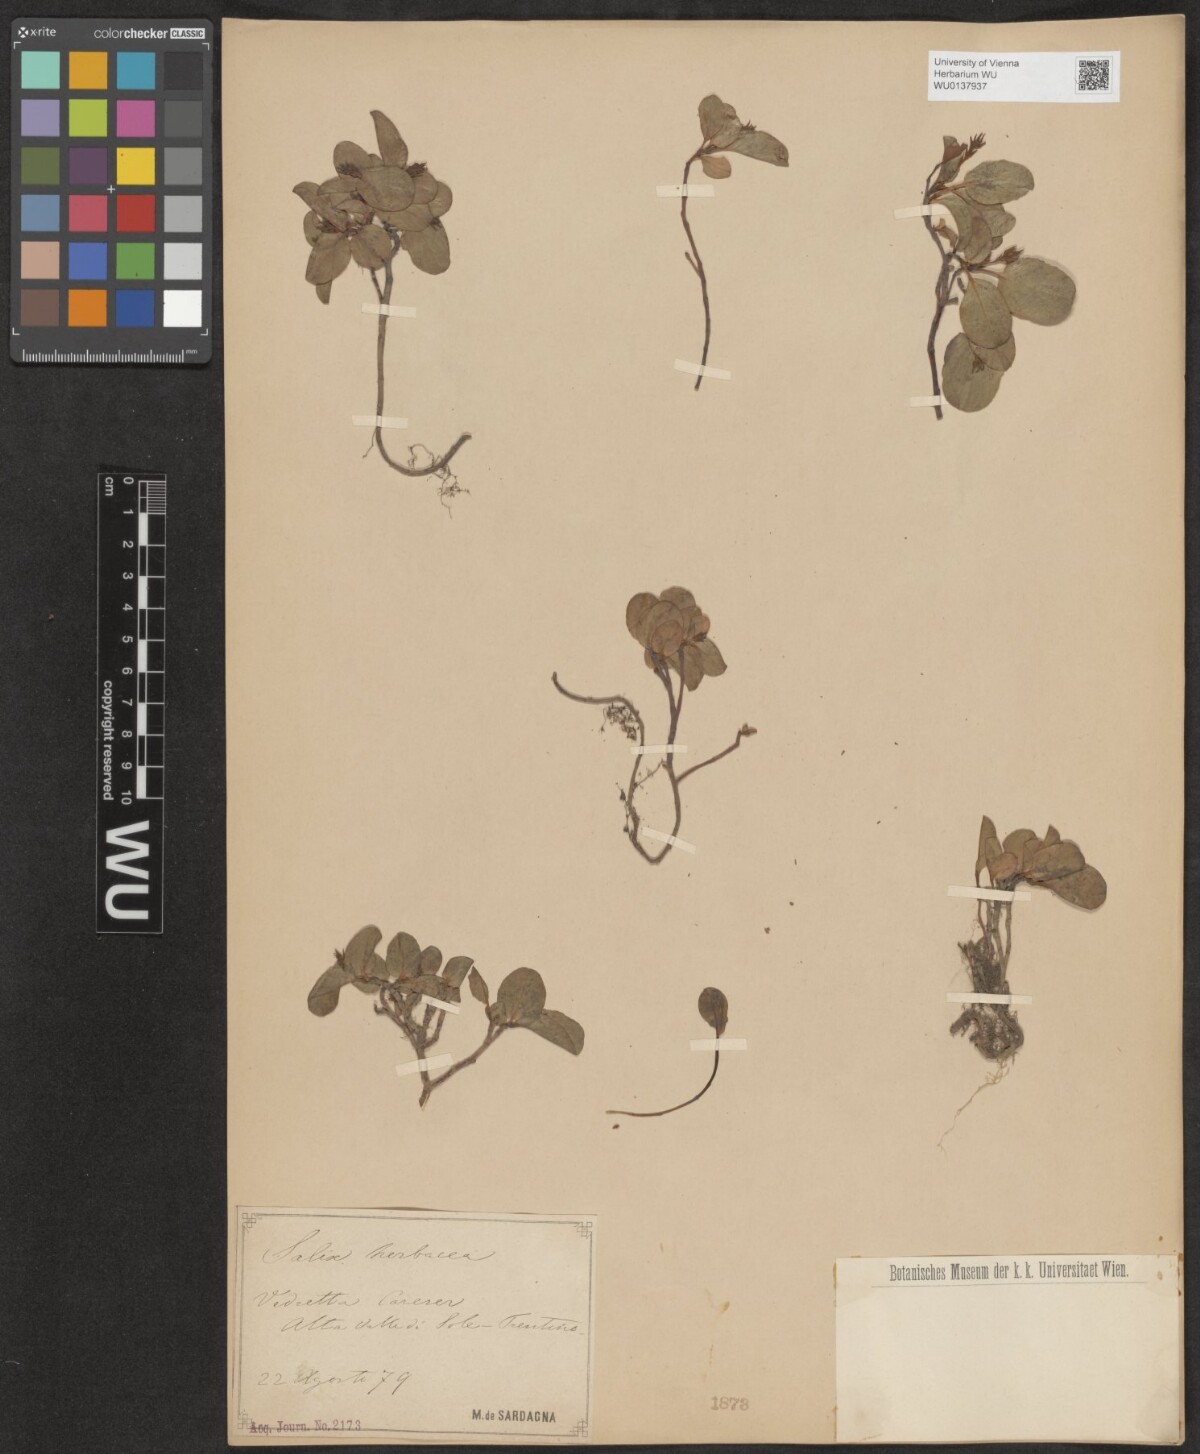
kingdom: Plantae
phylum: Tracheophyta
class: Magnoliopsida
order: Malpighiales
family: Salicaceae
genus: Salix
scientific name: Salix herbacea
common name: Dwarf willow
